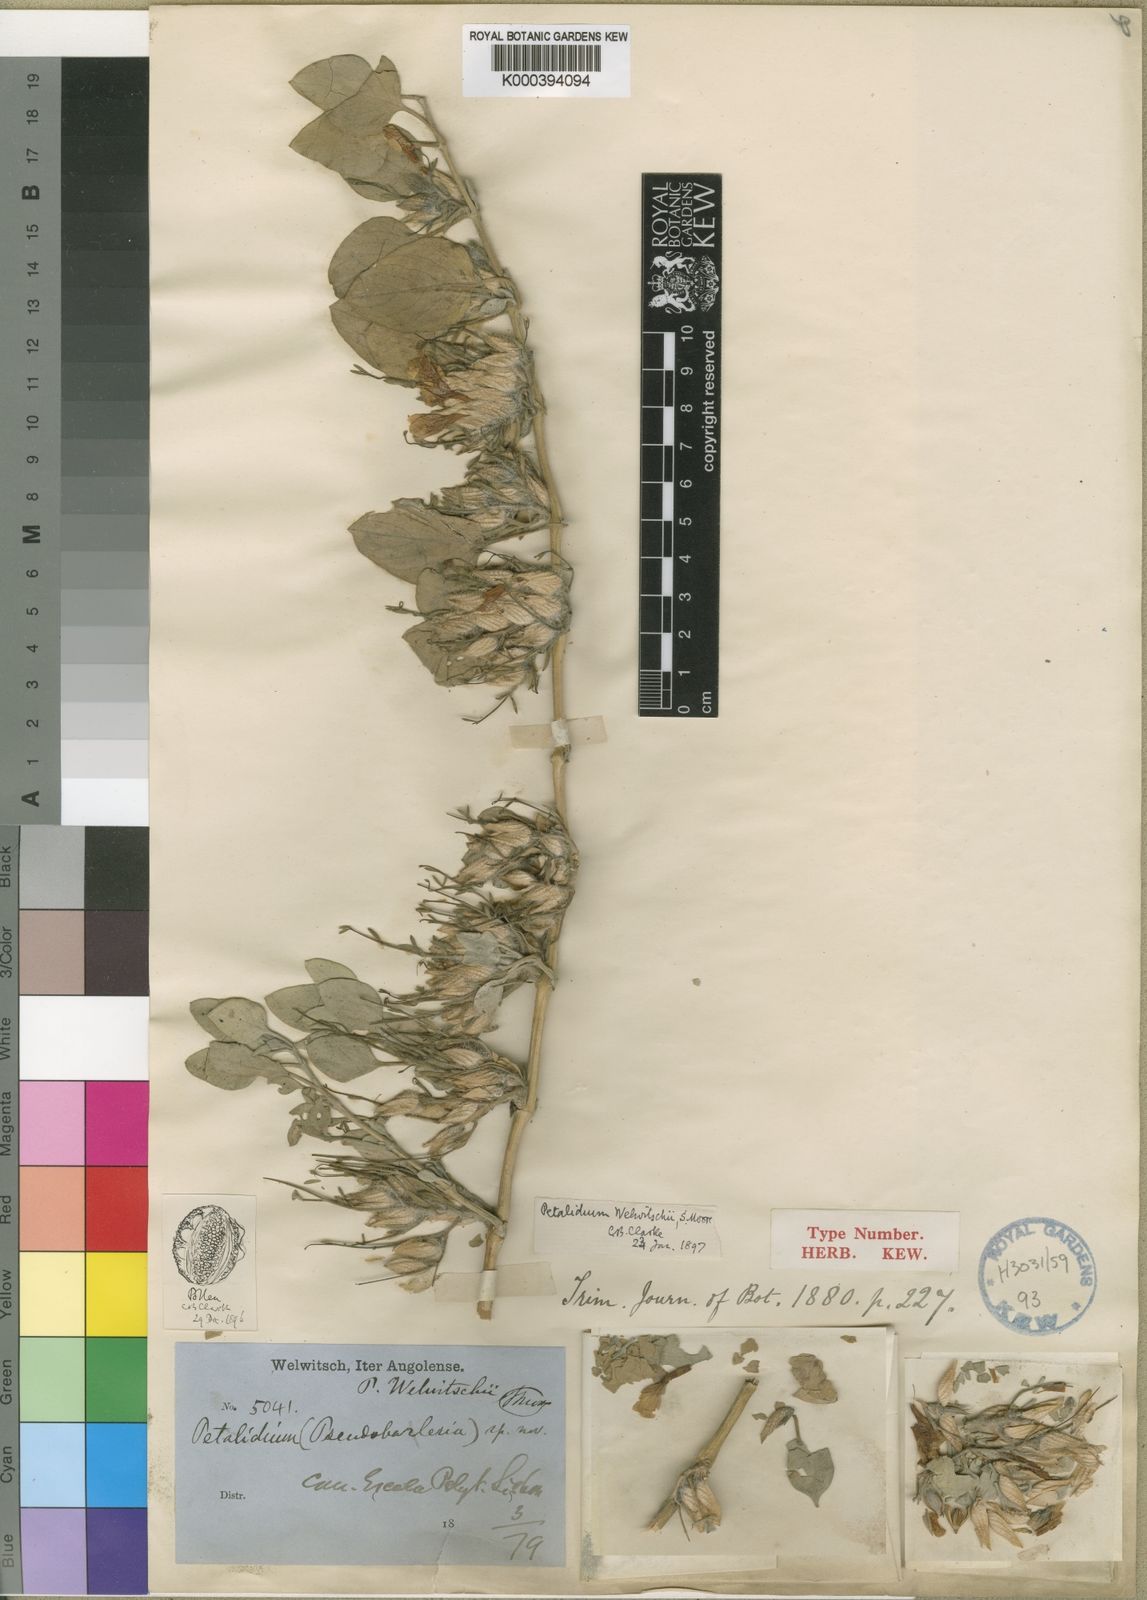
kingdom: Plantae
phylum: Tracheophyta
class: Magnoliopsida
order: Lamiales
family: Acanthaceae
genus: Petalidium
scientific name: Petalidium welwitschii
